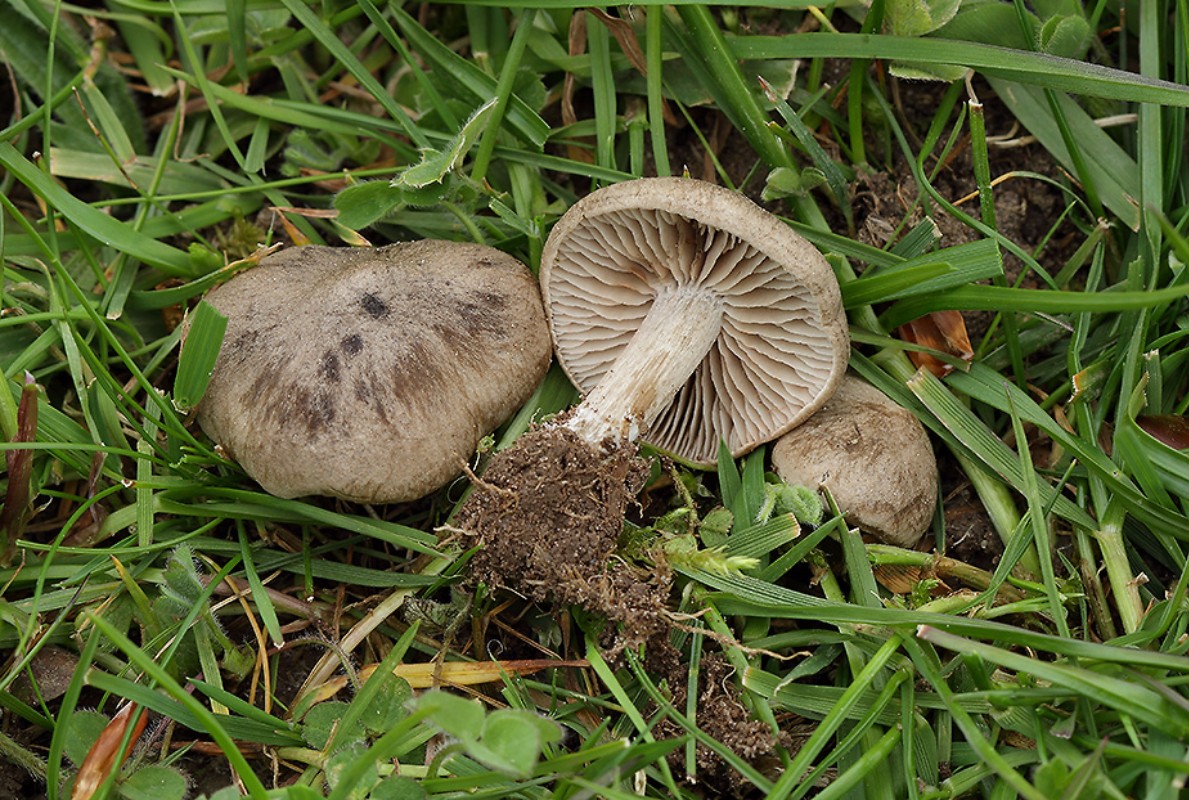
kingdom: Fungi
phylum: Basidiomycota
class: Agaricomycetes
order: Agaricales
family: Entolomataceae
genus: Entoloma
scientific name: Entoloma opacum
